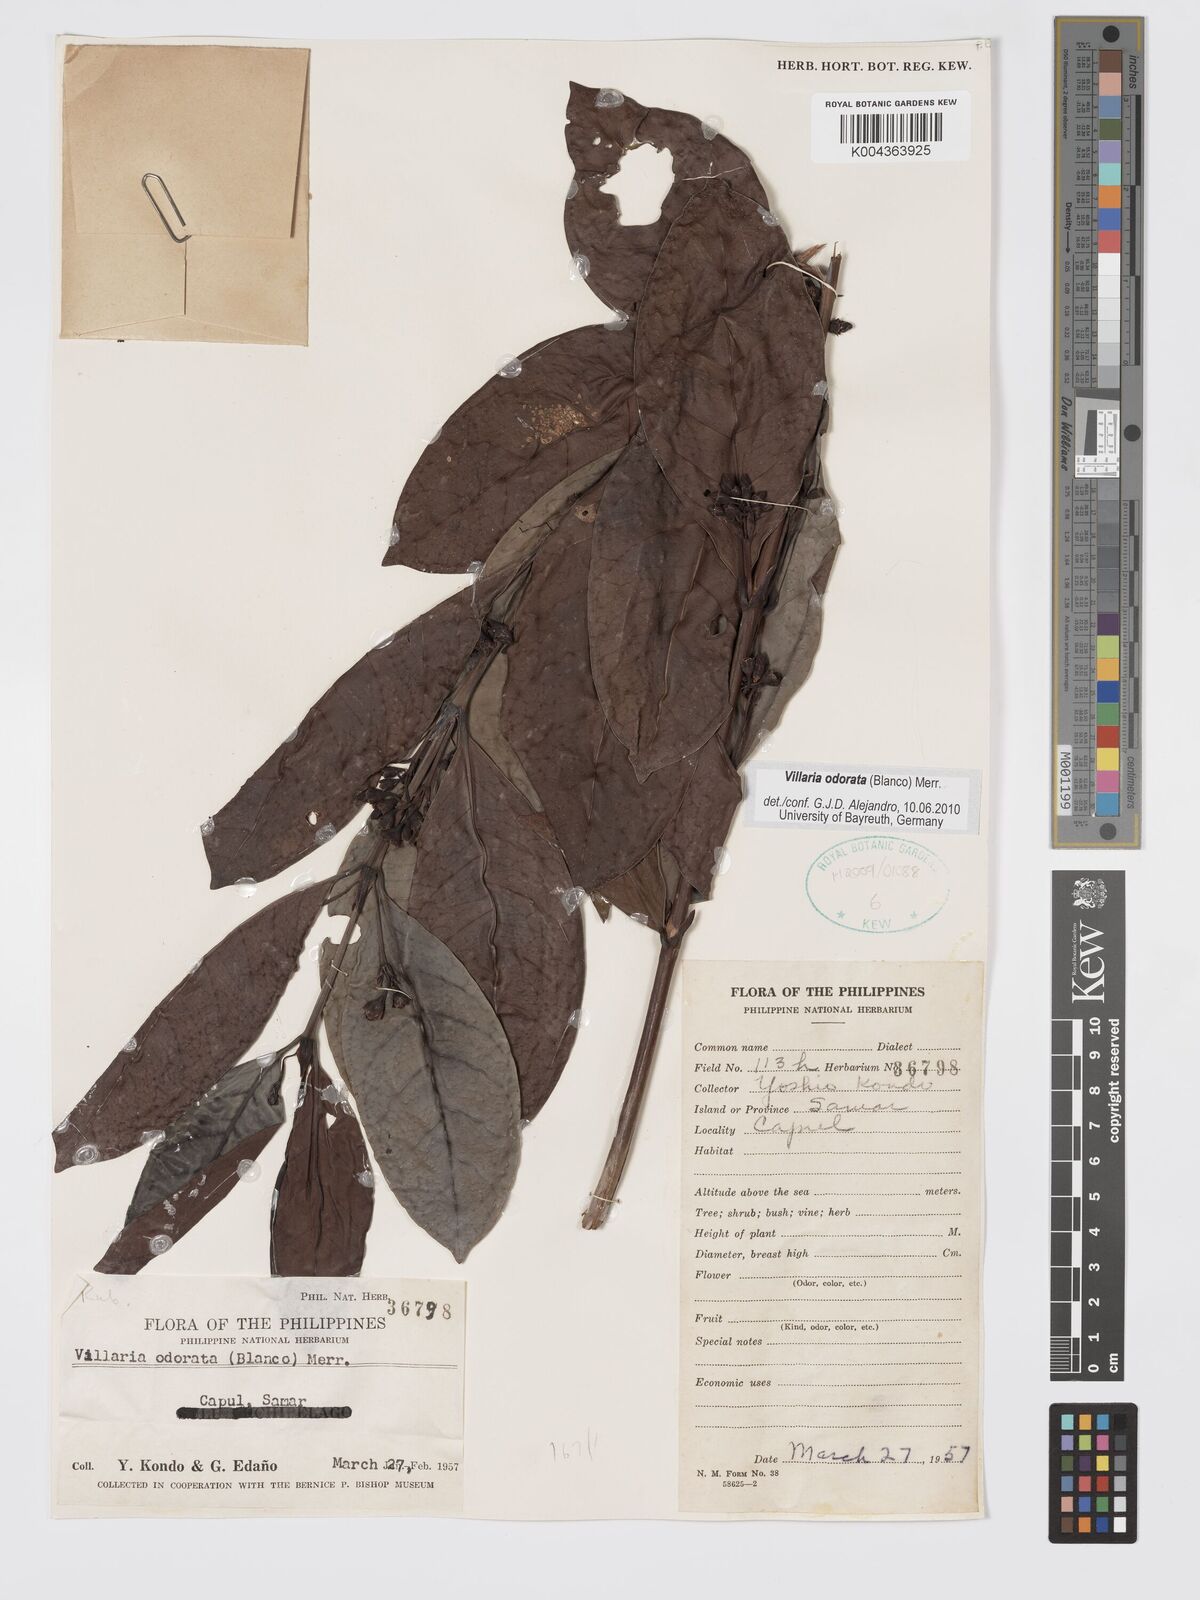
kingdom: Plantae
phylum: Tracheophyta
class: Magnoliopsida
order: Gentianales
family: Rubiaceae
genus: Villaria
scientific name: Villaria odorata
